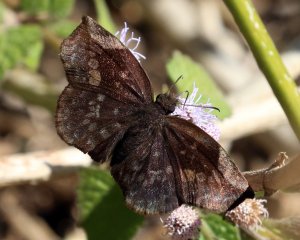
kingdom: Animalia
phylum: Arthropoda
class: Insecta
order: Lepidoptera
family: Hesperiidae
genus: Achlyodes
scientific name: Achlyodes thraso
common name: Sickle-winged Skipper
